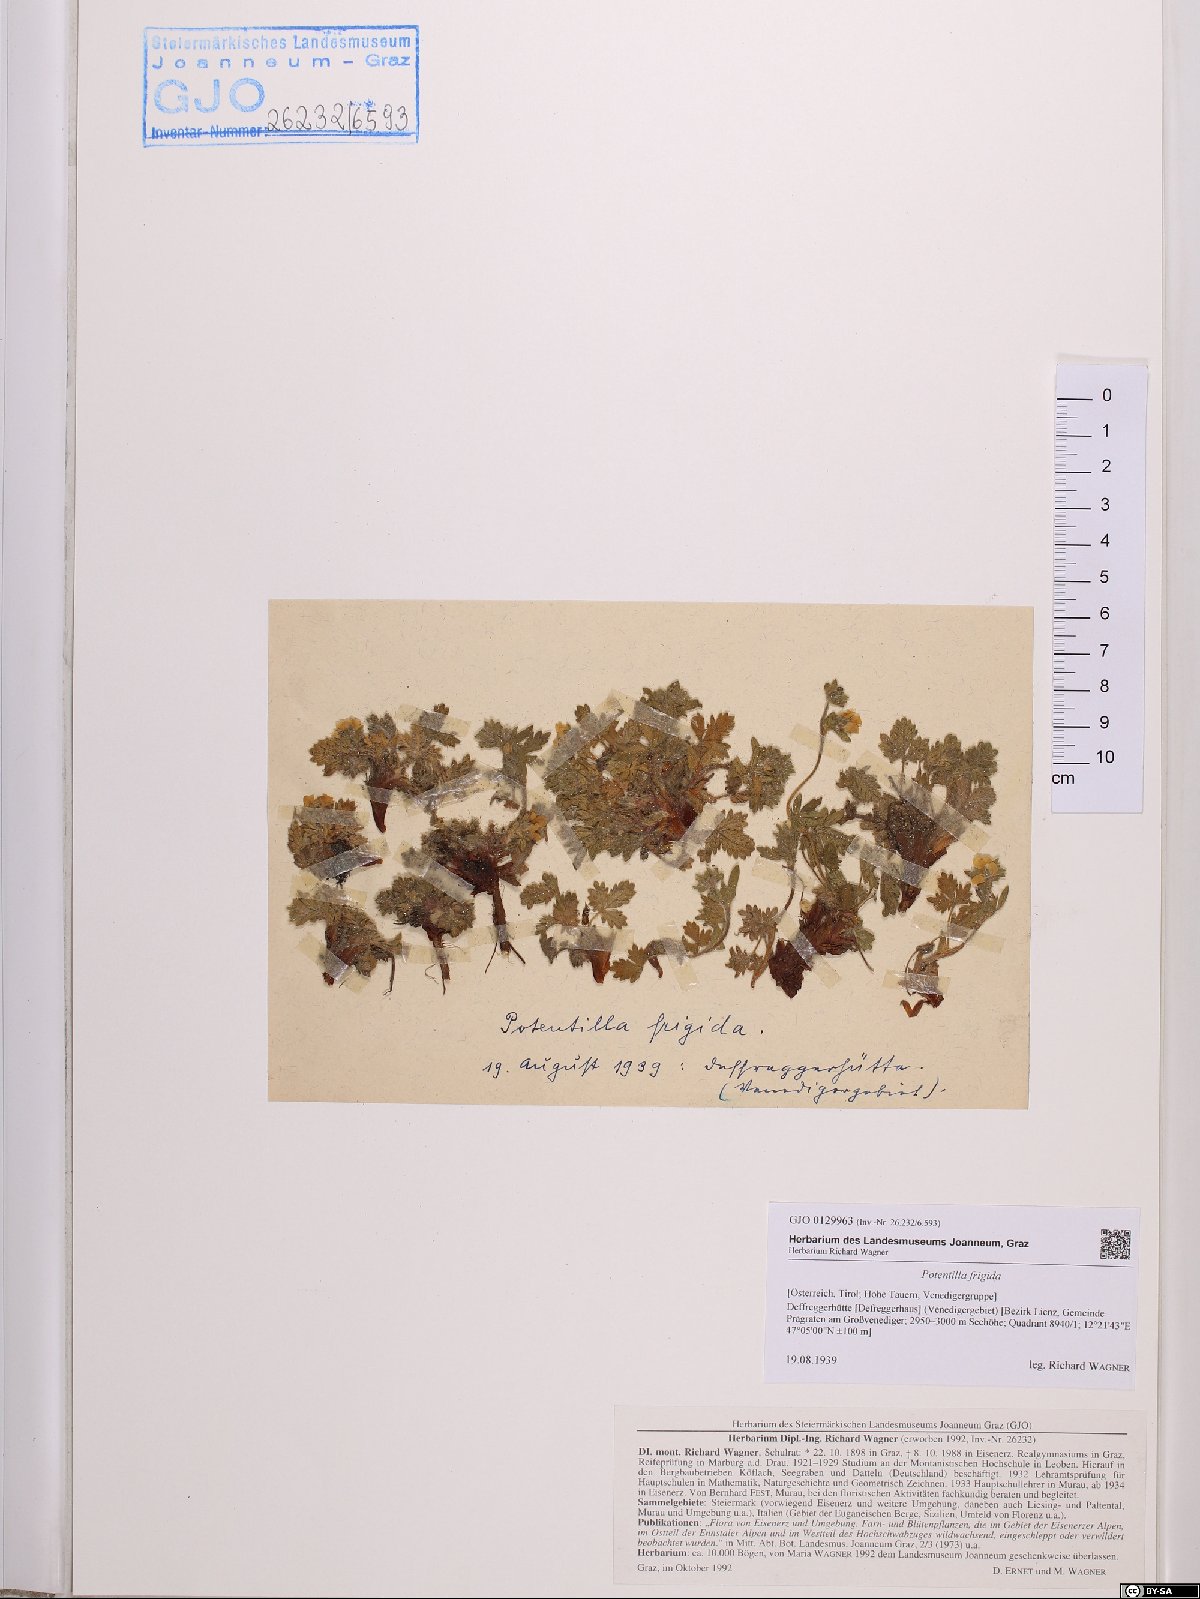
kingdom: Plantae
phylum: Tracheophyta
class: Magnoliopsida
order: Rosales
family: Rosaceae
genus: Potentilla
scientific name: Potentilla frigida
